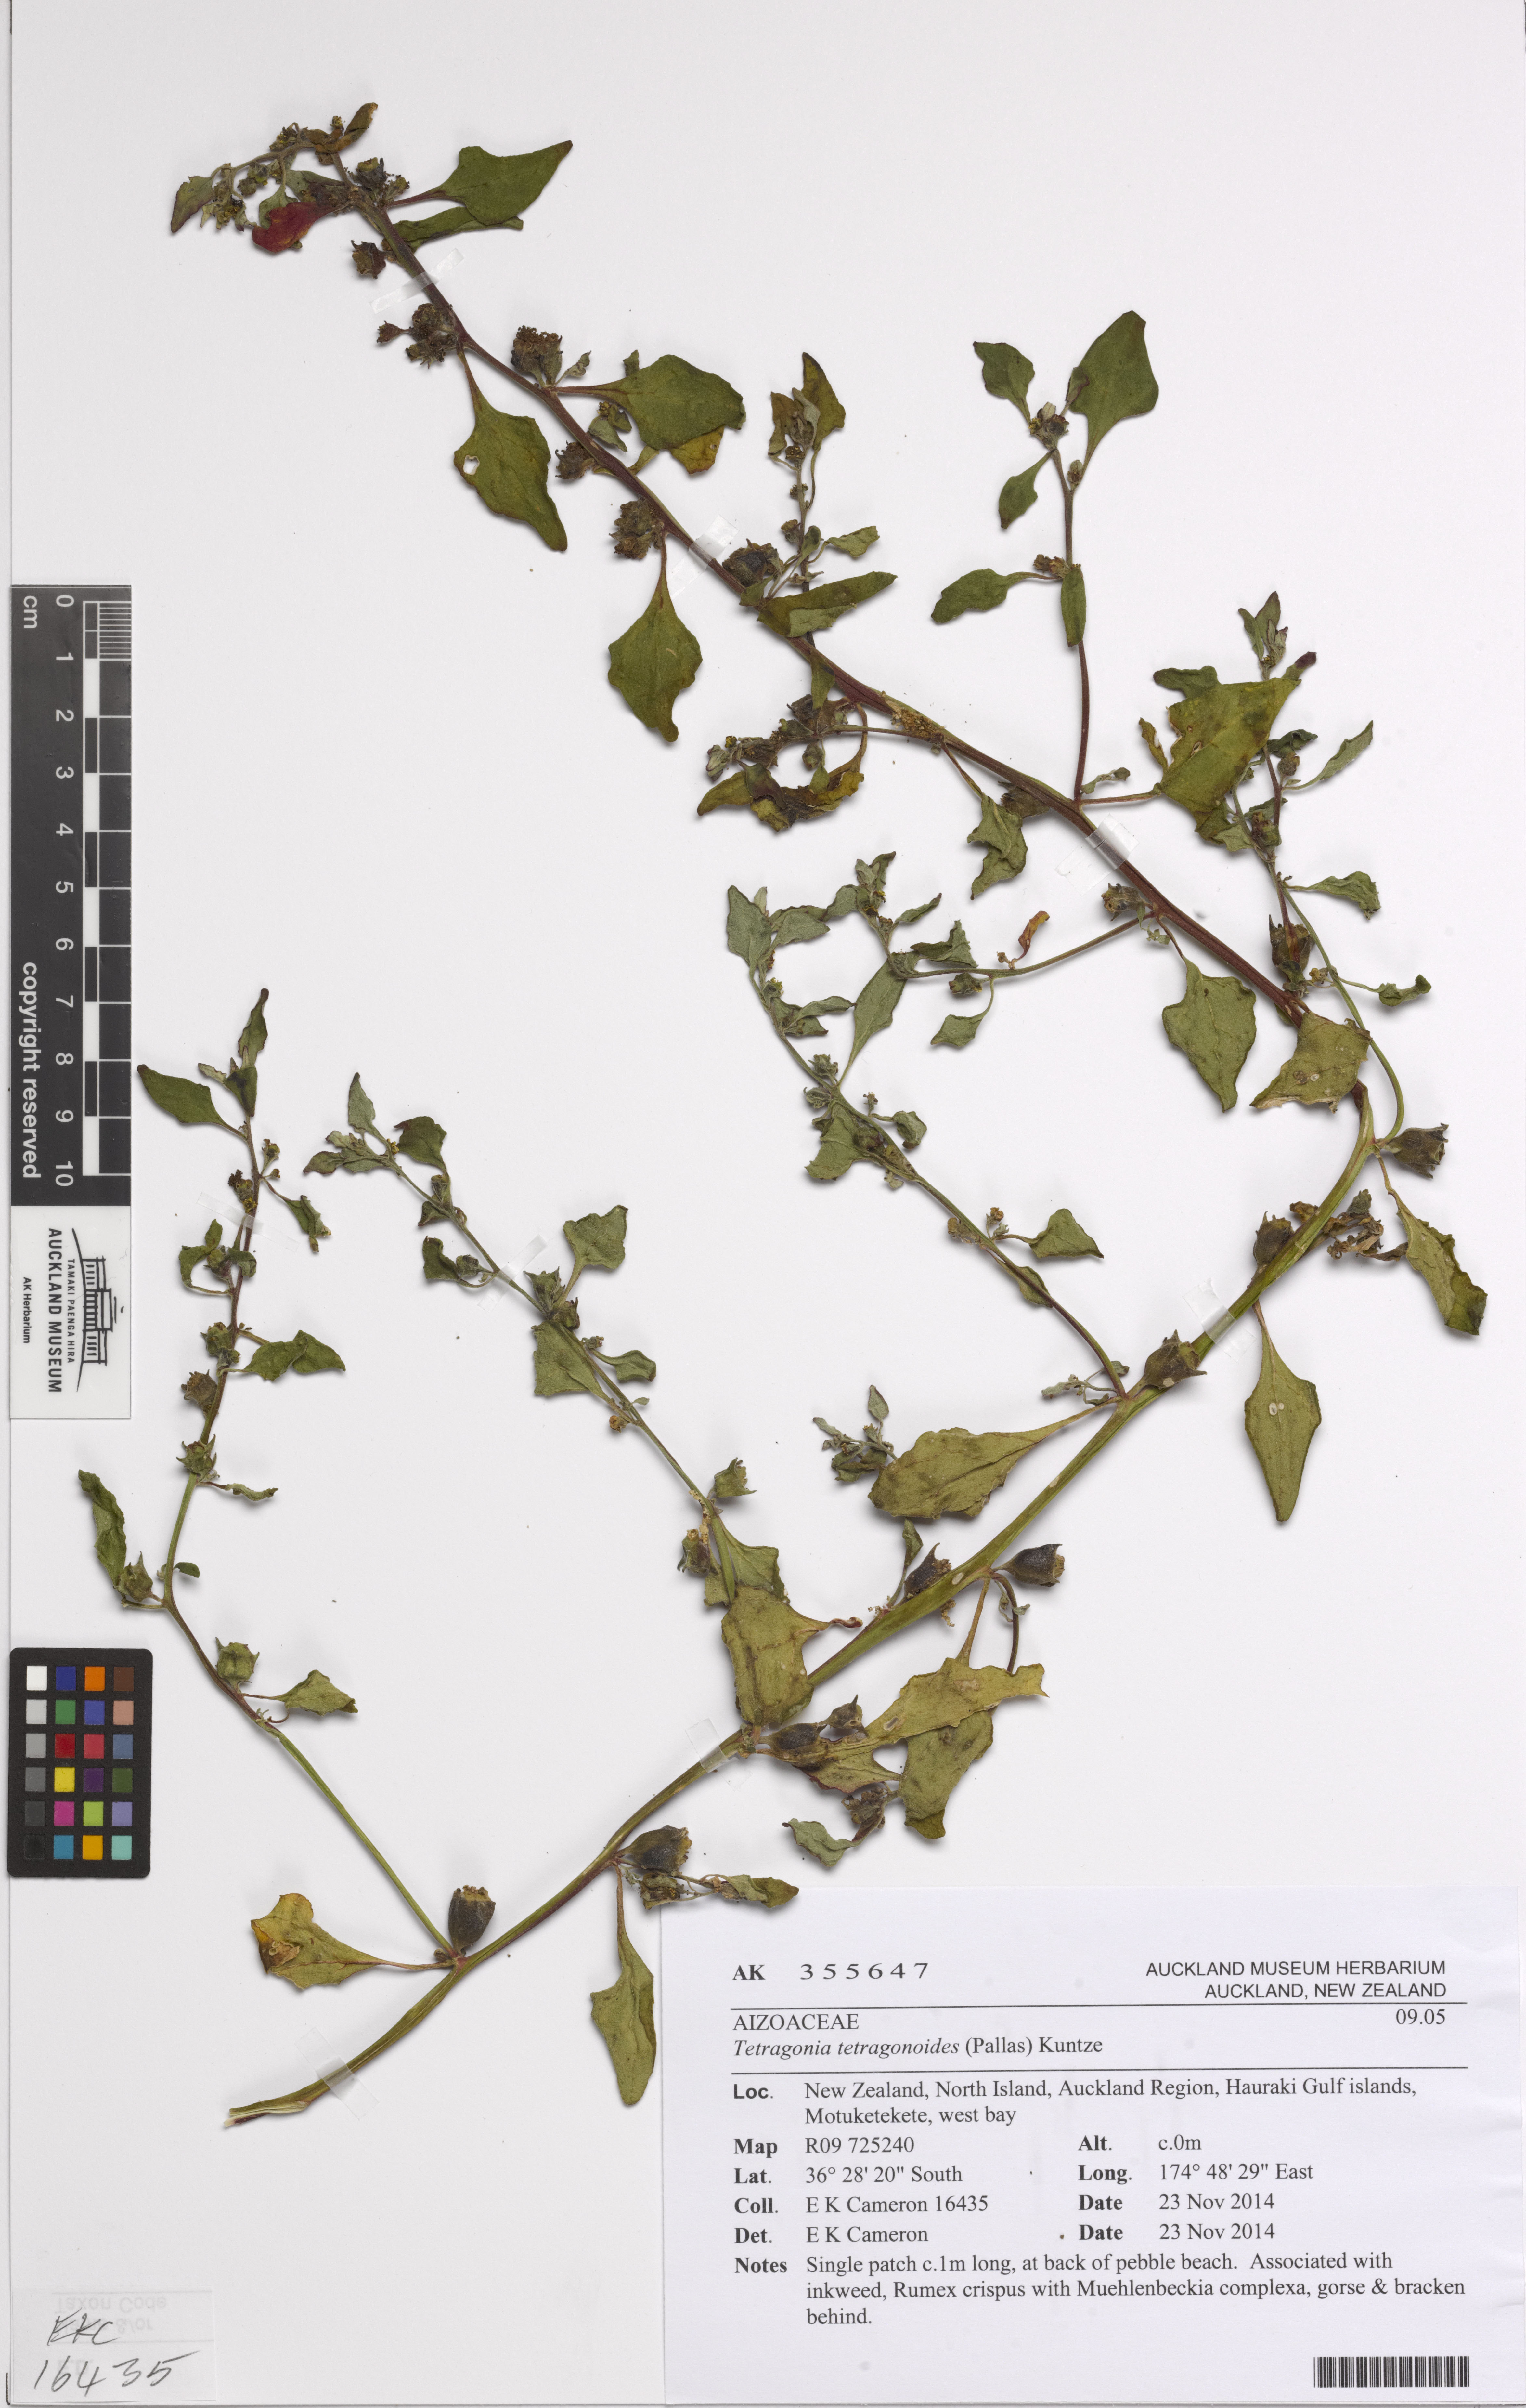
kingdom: Plantae
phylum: Tracheophyta
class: Magnoliopsida
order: Caryophyllales
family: Aizoaceae
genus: Tetragonia
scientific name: Tetragonia tetragonoides
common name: New zealand-spinach
